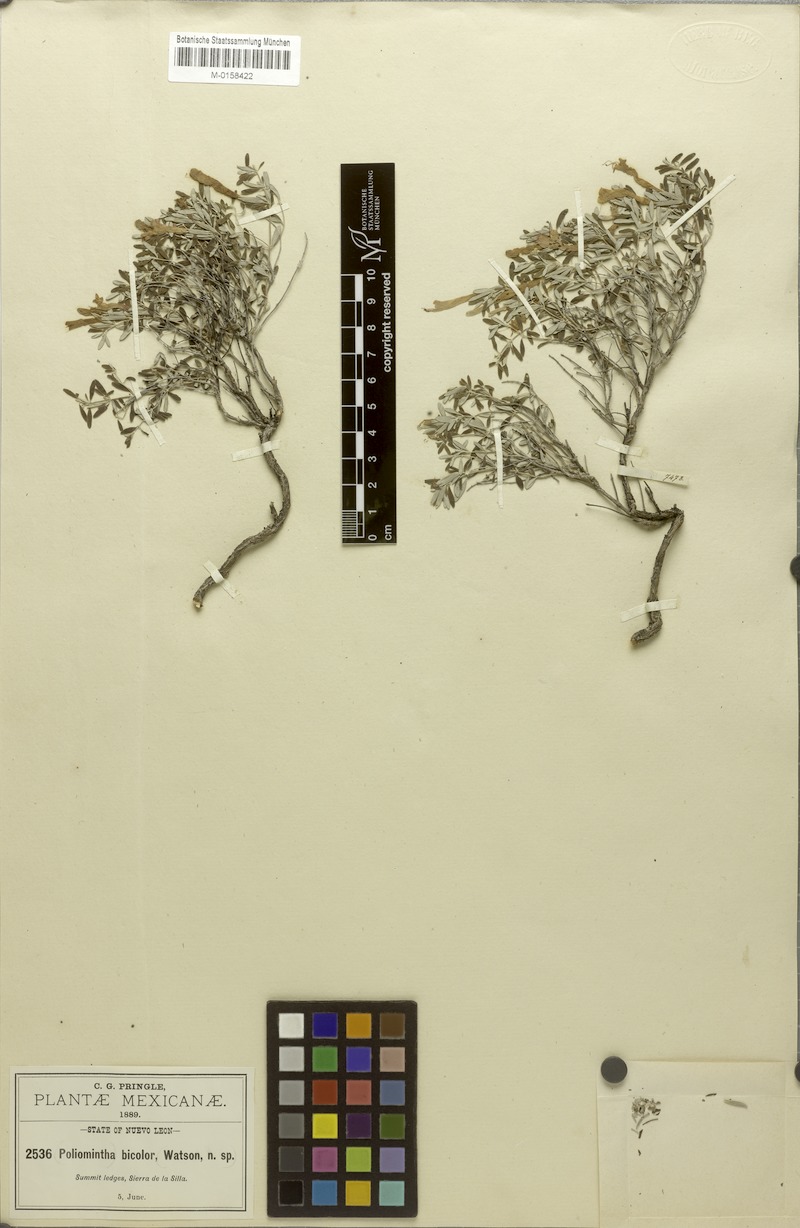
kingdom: Plantae
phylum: Tracheophyta
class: Magnoliopsida
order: Lamiales
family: Lamiaceae
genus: Poliomintha
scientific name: Poliomintha longiflora
